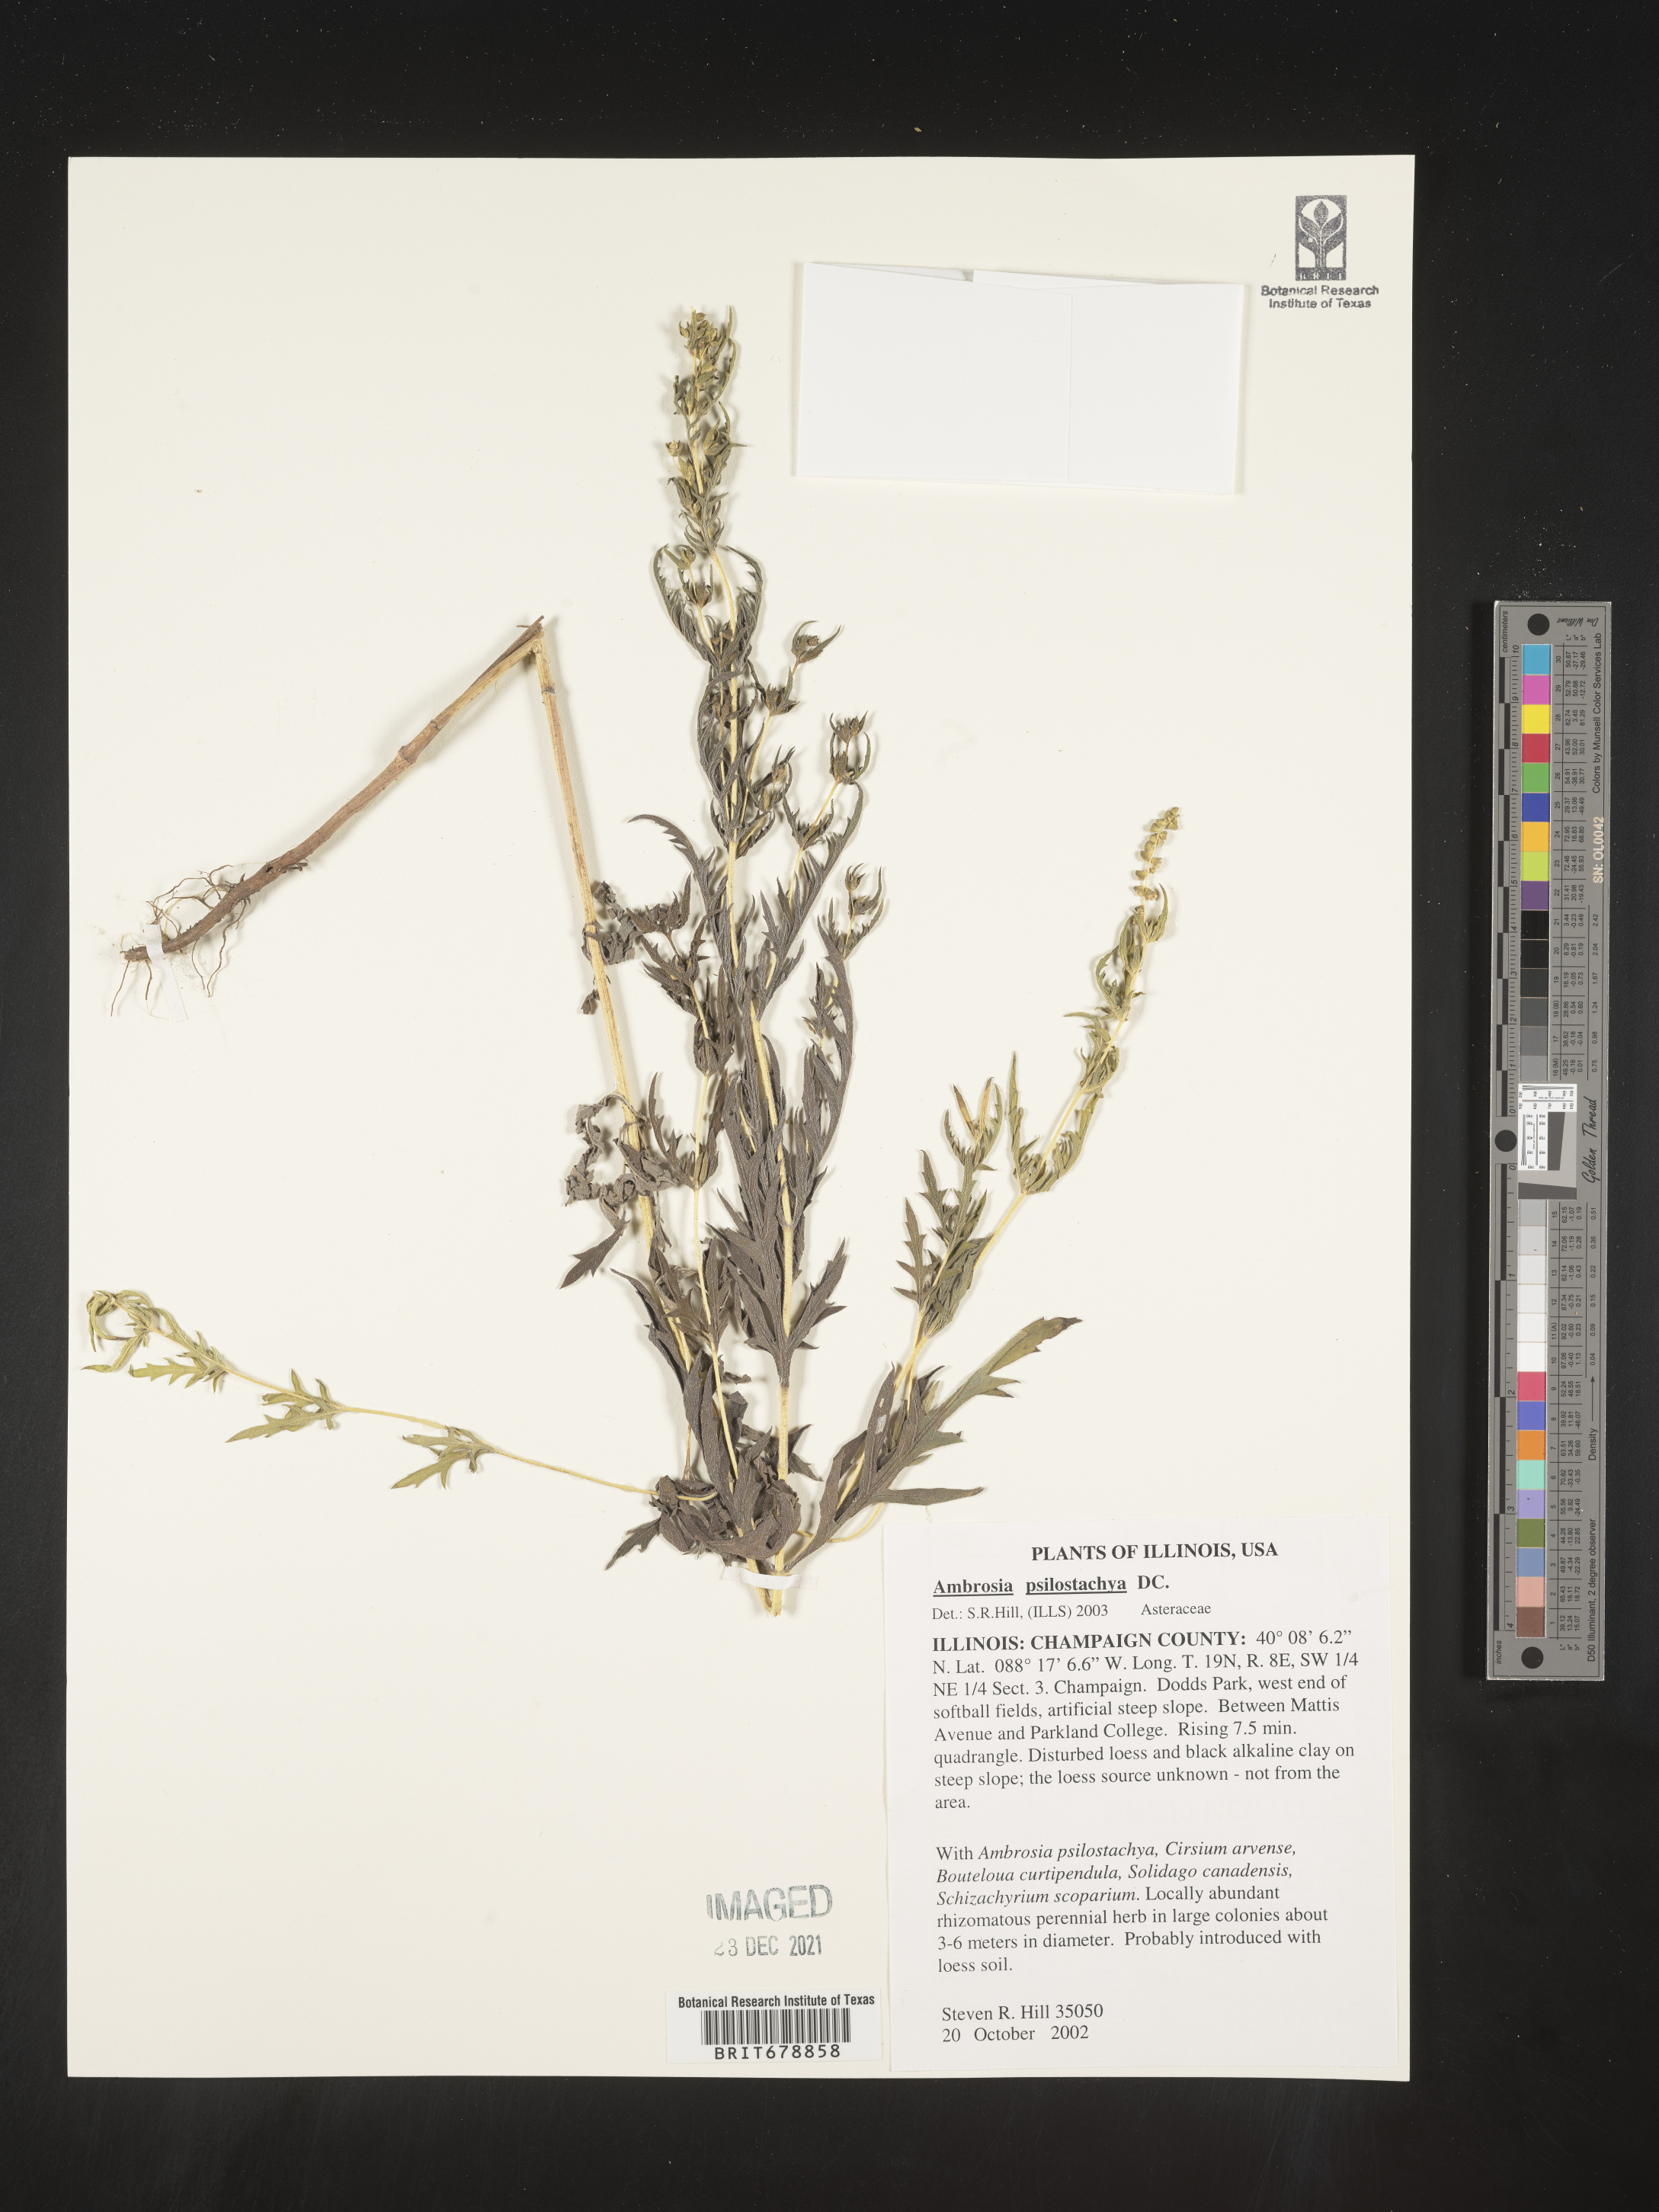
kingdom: Plantae
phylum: Tracheophyta
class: Magnoliopsida
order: Asterales
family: Asteraceae
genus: Ambrosia
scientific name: Ambrosia psilostachya
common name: Perennial ragweed
